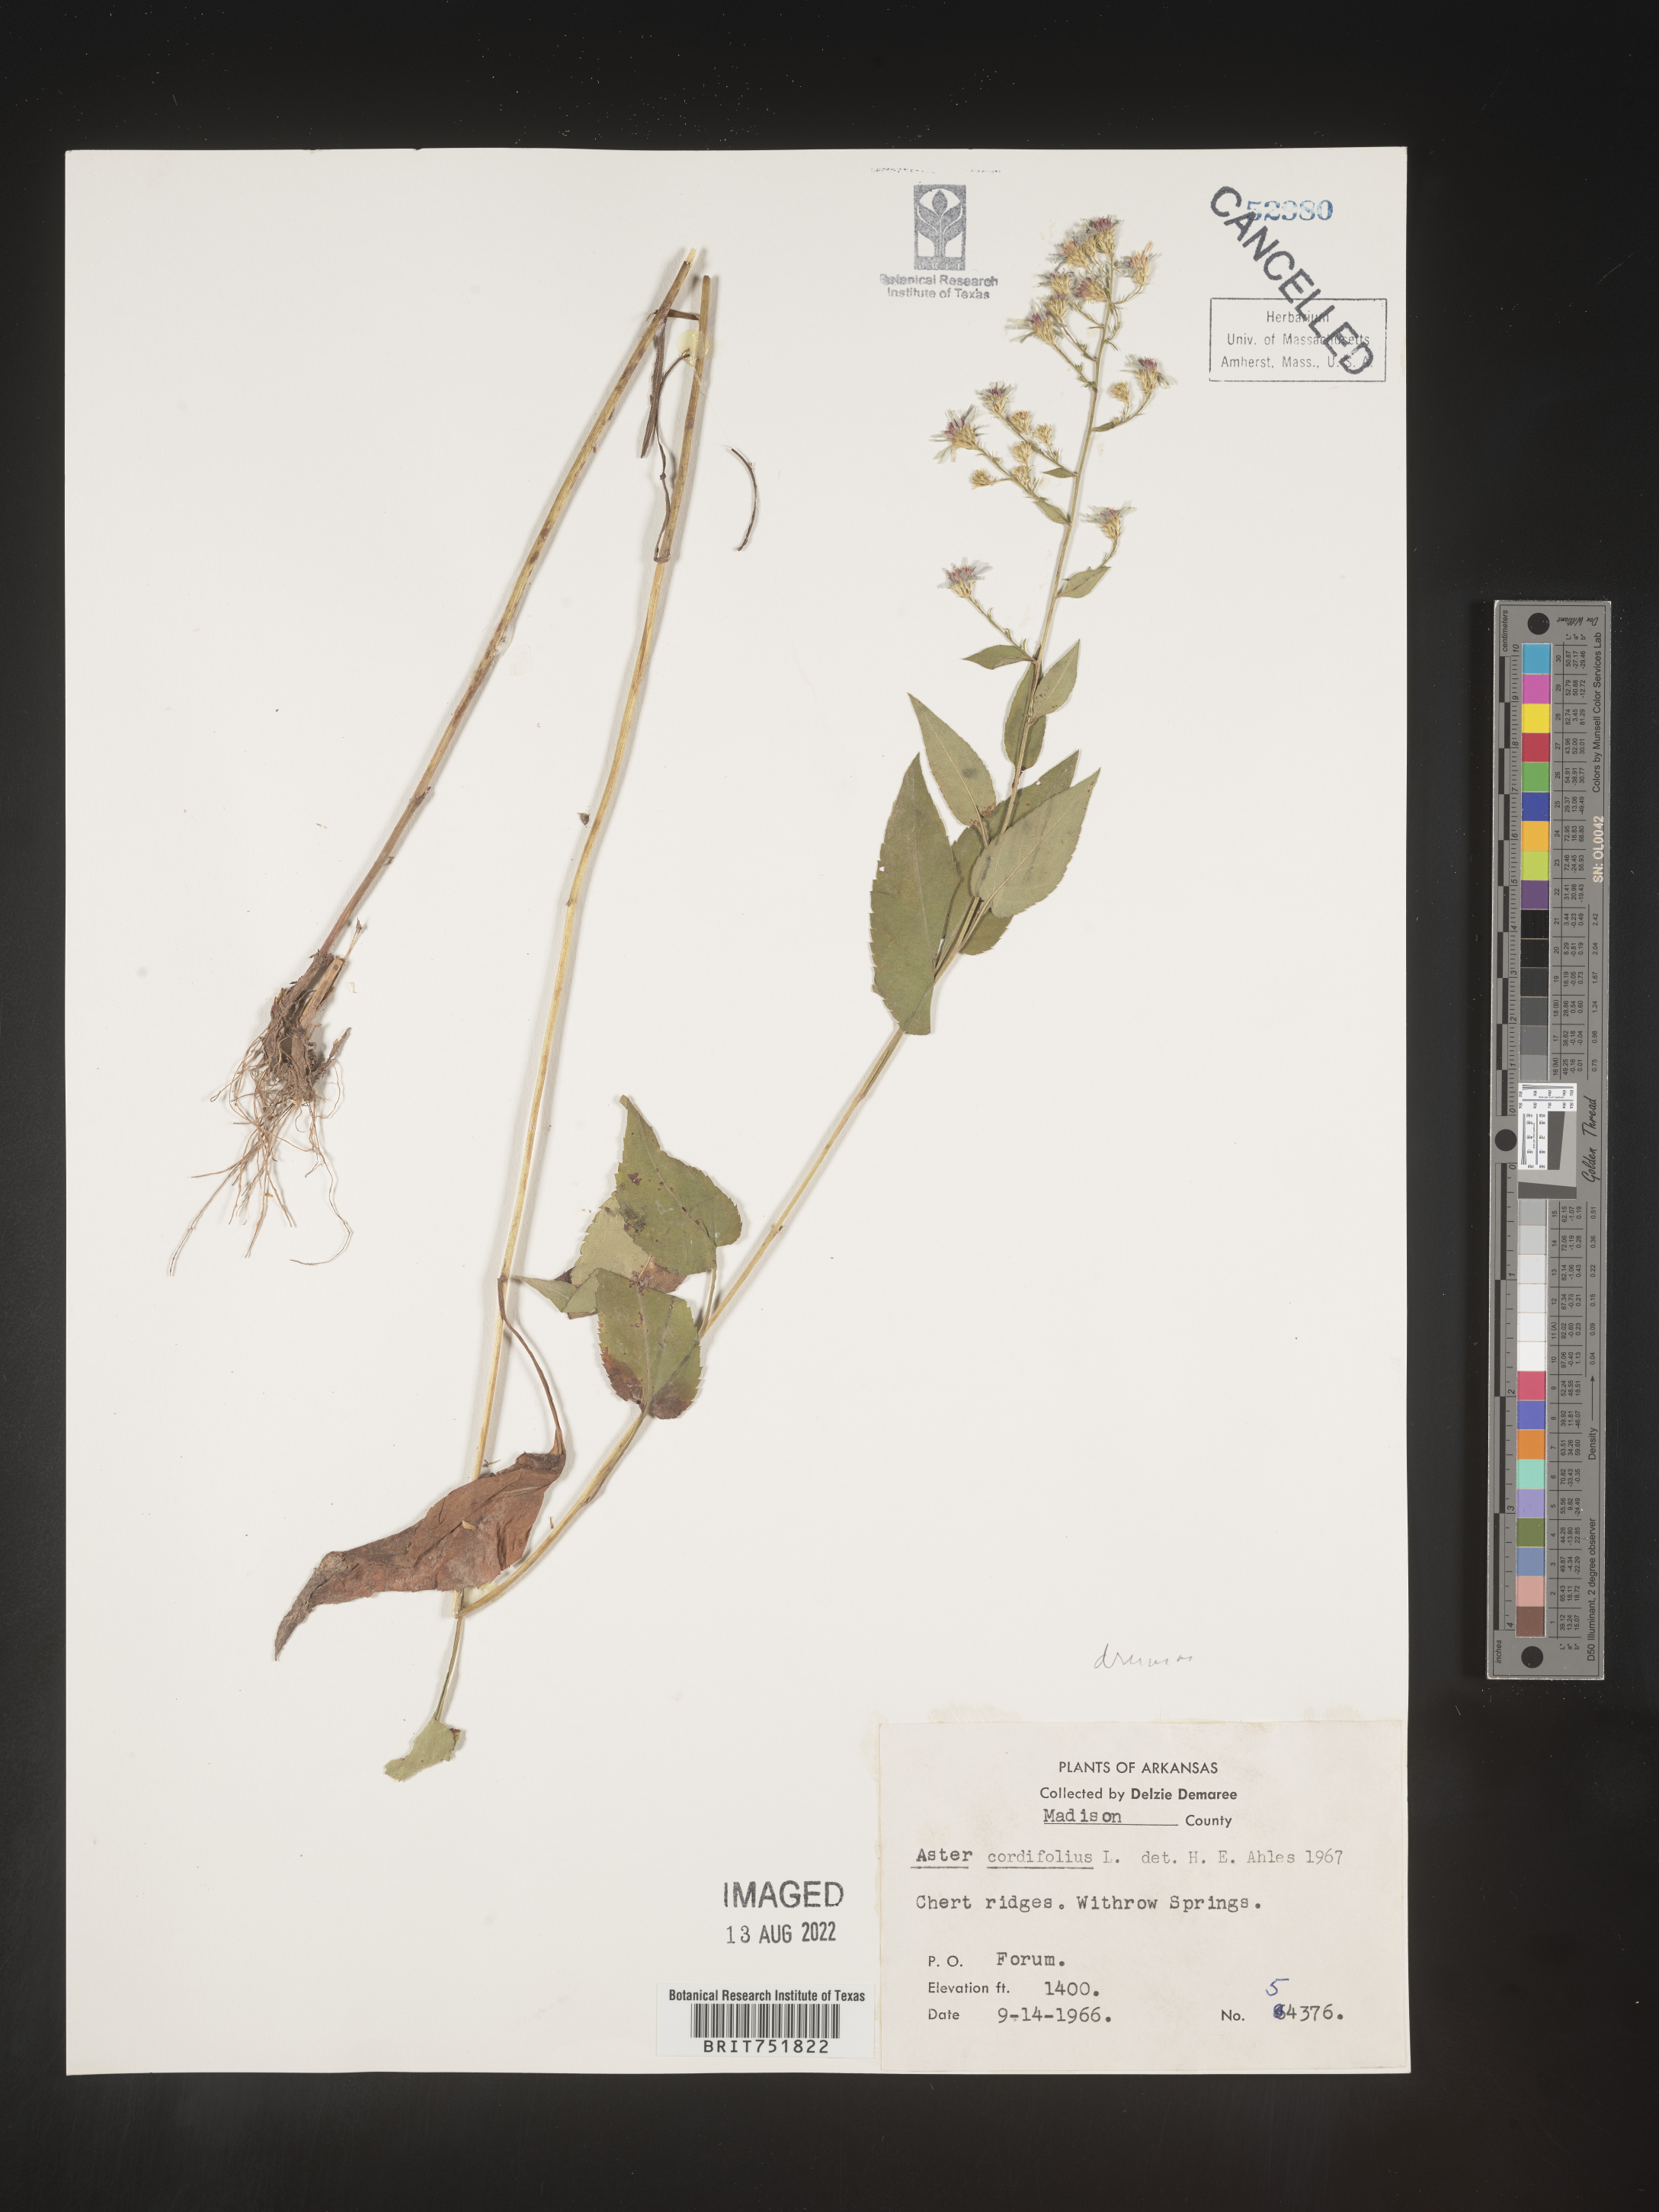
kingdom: Plantae
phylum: Tracheophyta
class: Magnoliopsida
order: Asterales
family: Asteraceae
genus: Symphyotrichum
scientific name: Symphyotrichum drummondii
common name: Drummond's aster
